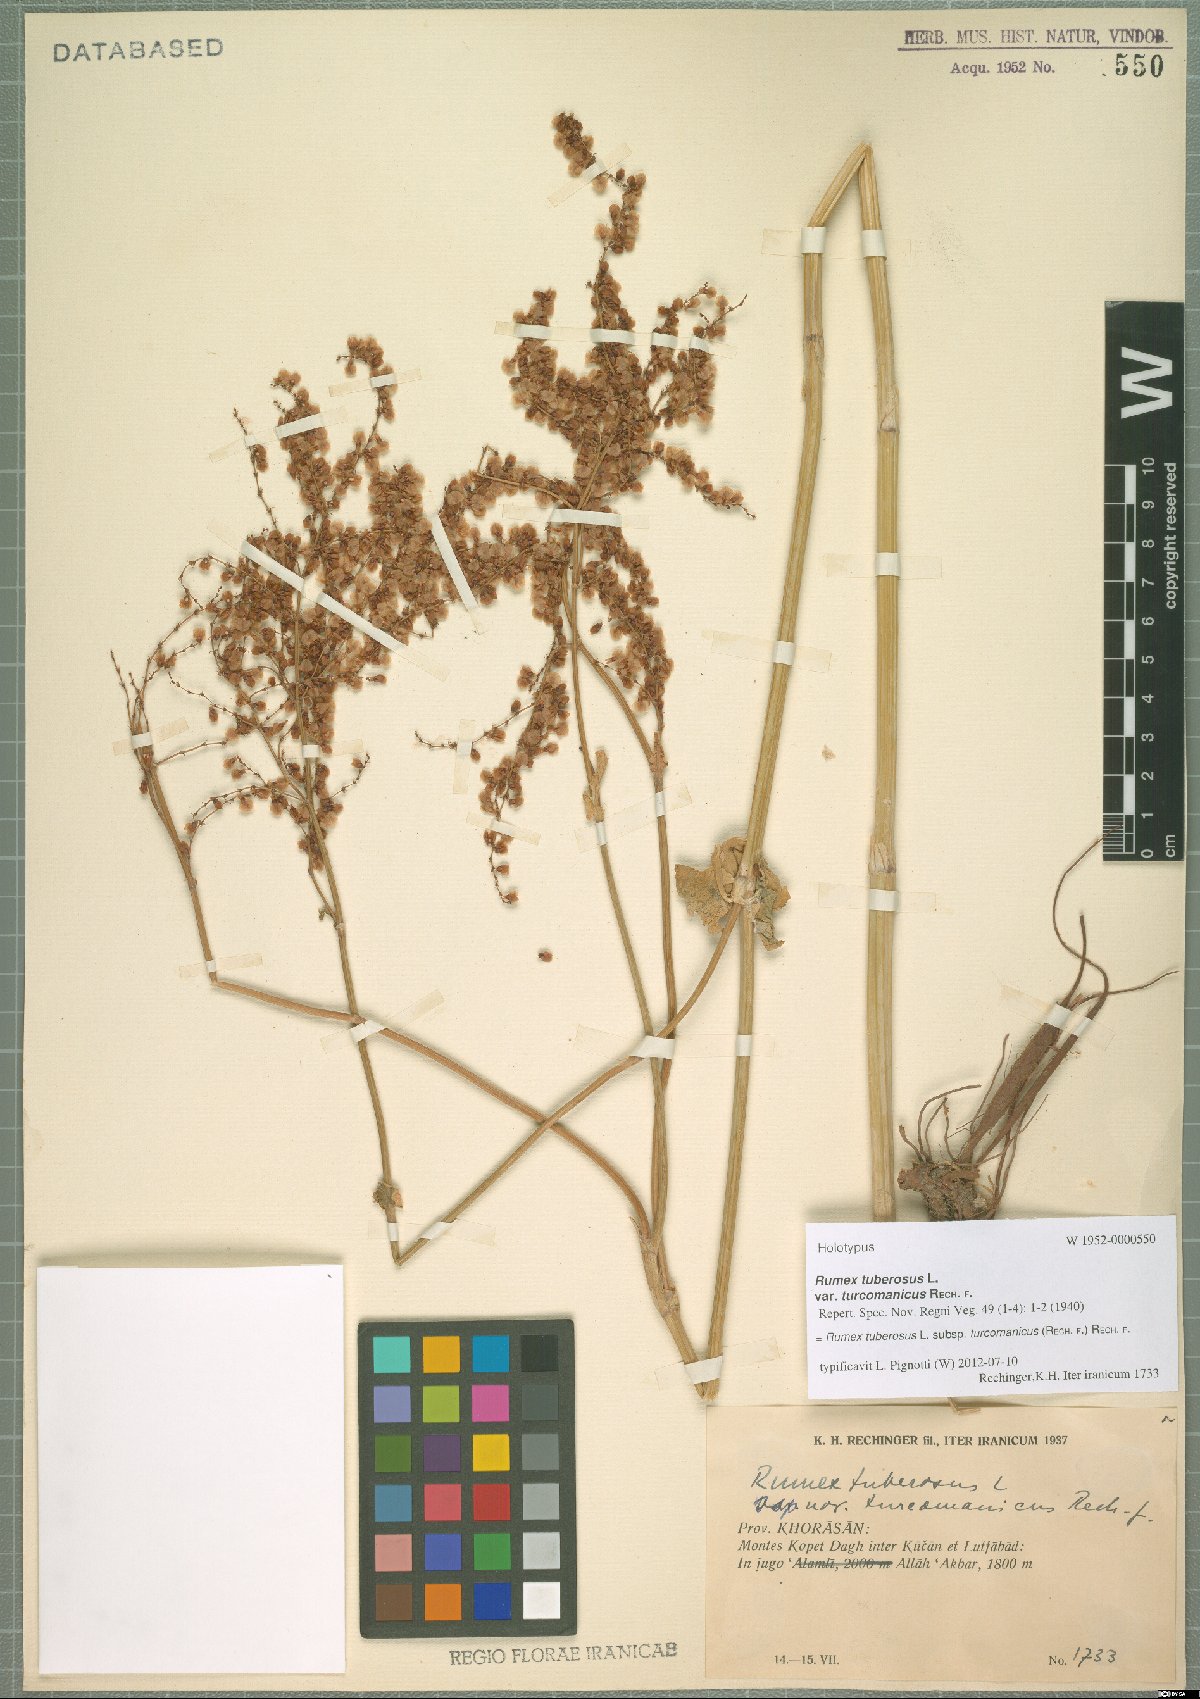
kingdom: Plantae
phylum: Tracheophyta
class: Magnoliopsida
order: Caryophyllales
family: Polygonaceae
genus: Rumex
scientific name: Rumex tuberosus
